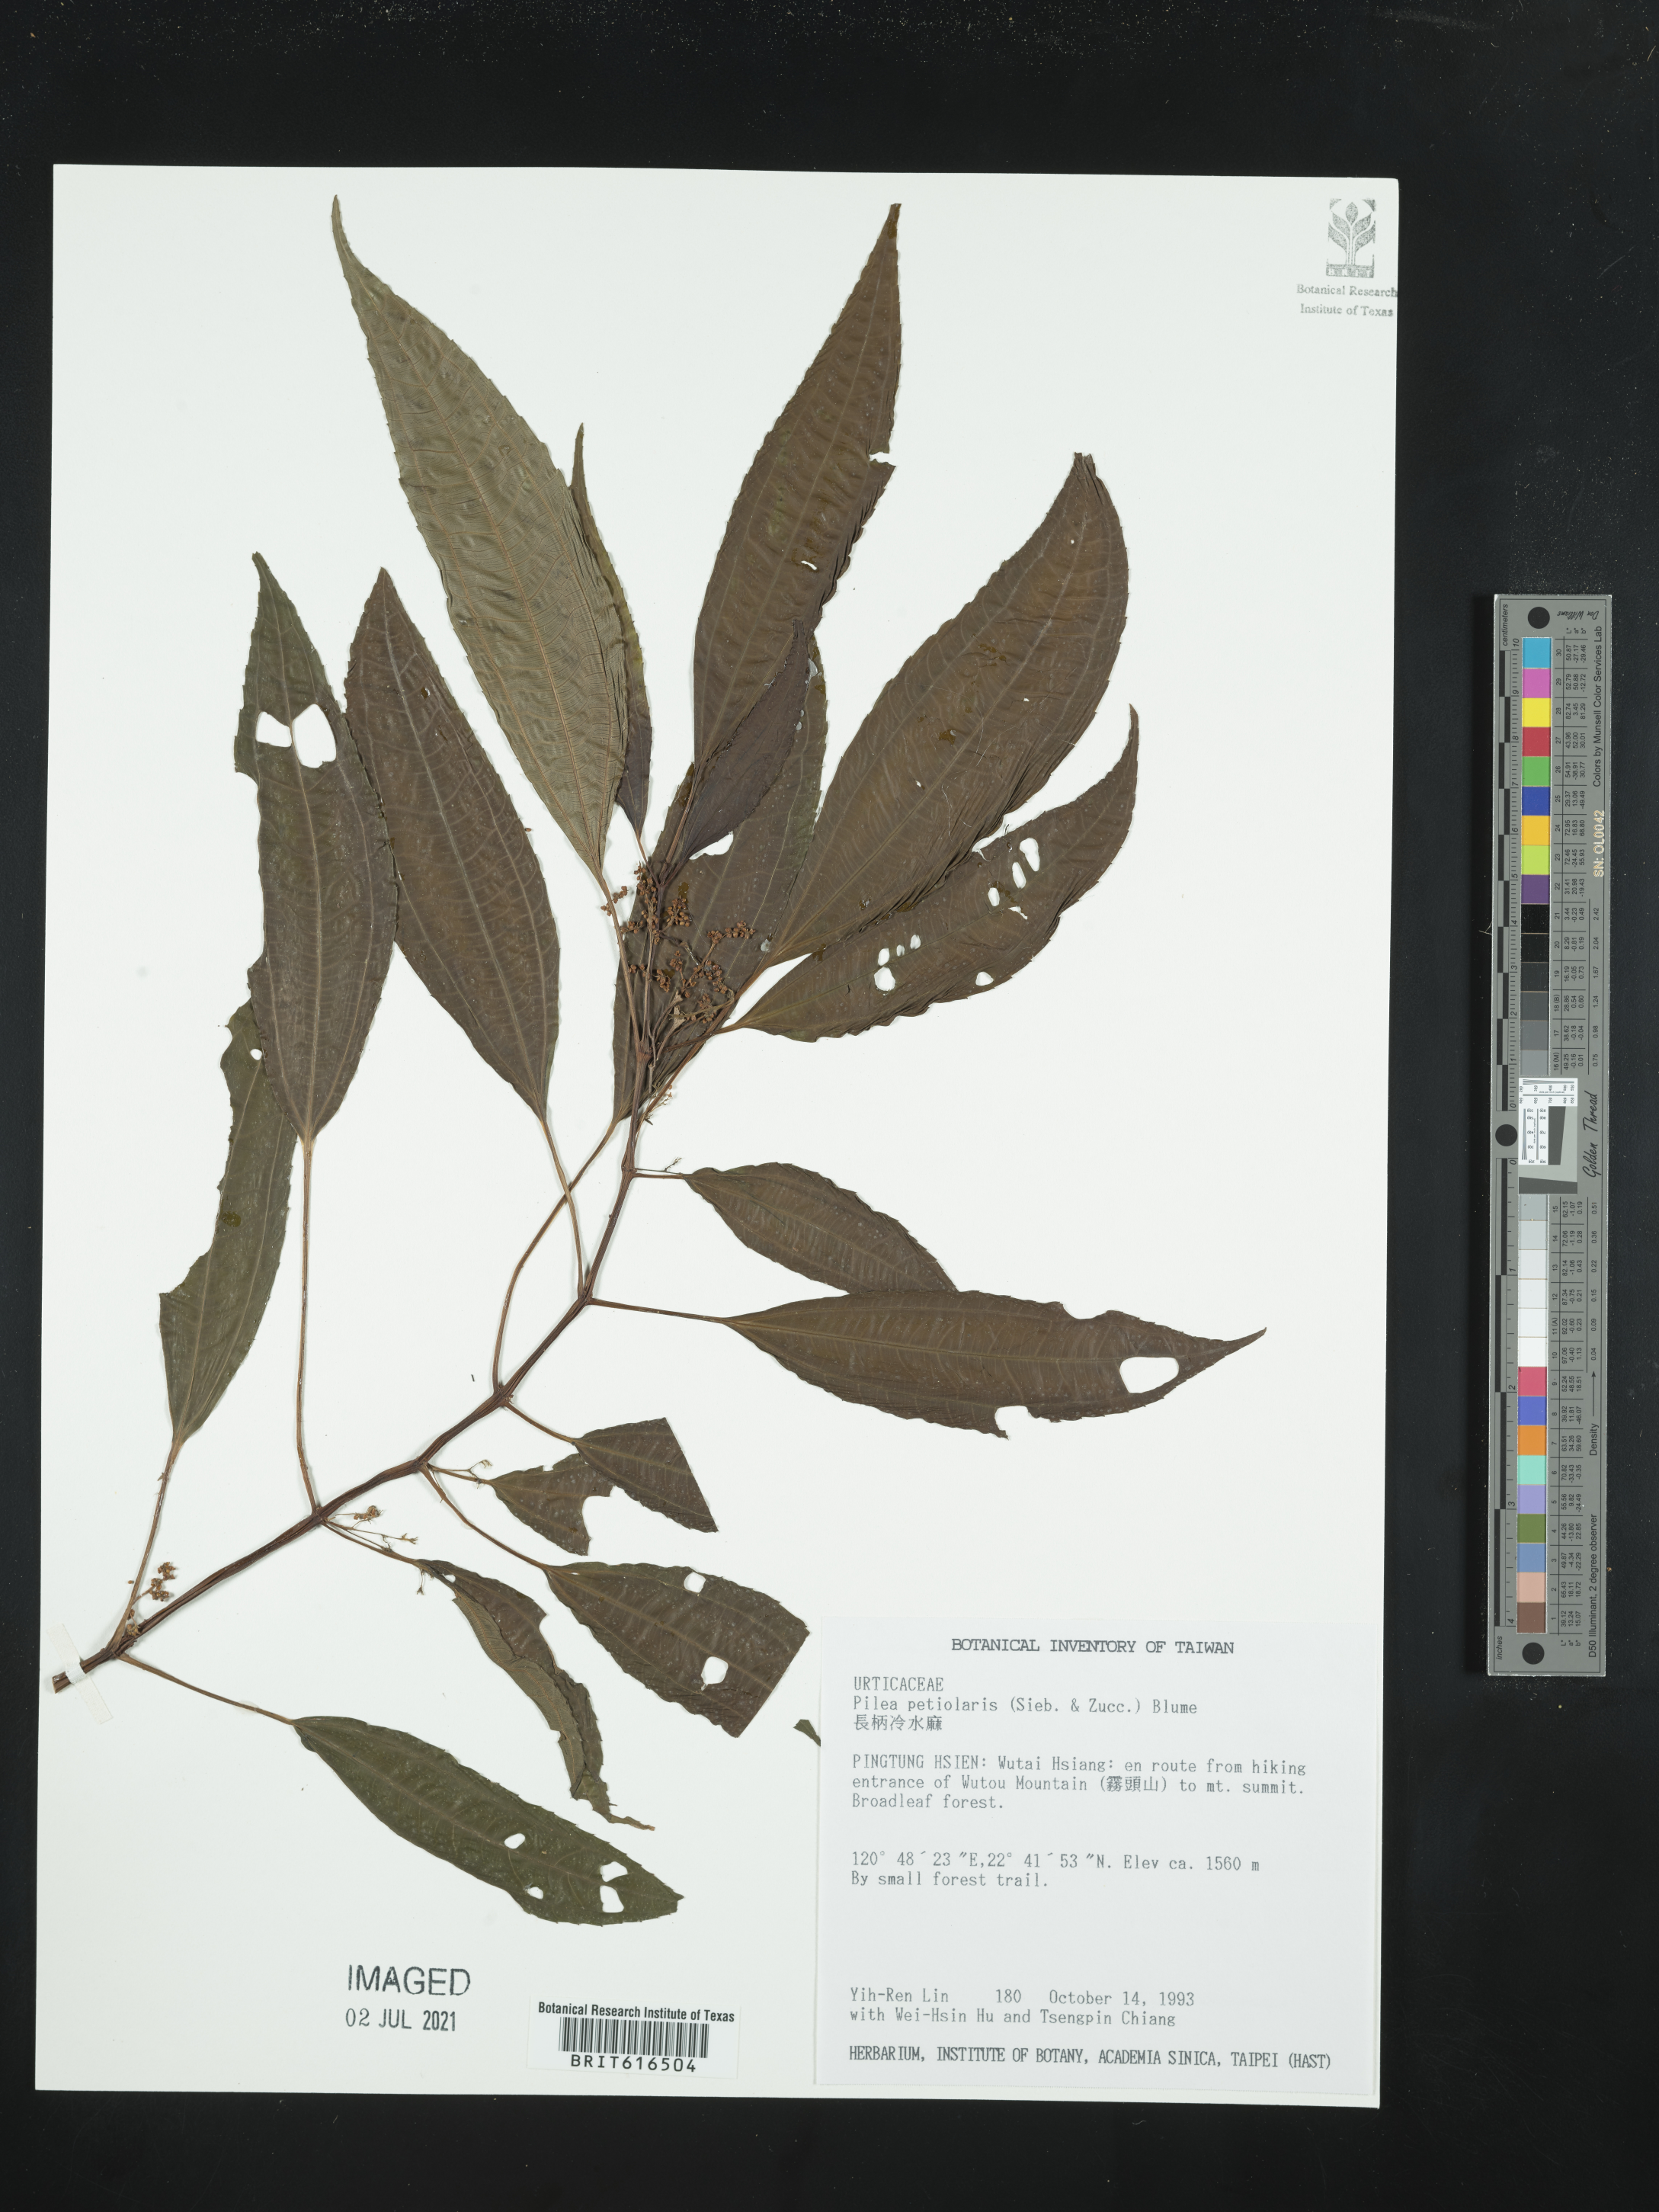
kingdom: Plantae
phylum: Tracheophyta
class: Magnoliopsida
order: Rosales
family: Urticaceae
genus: Pilea
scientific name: Pilea angulata
